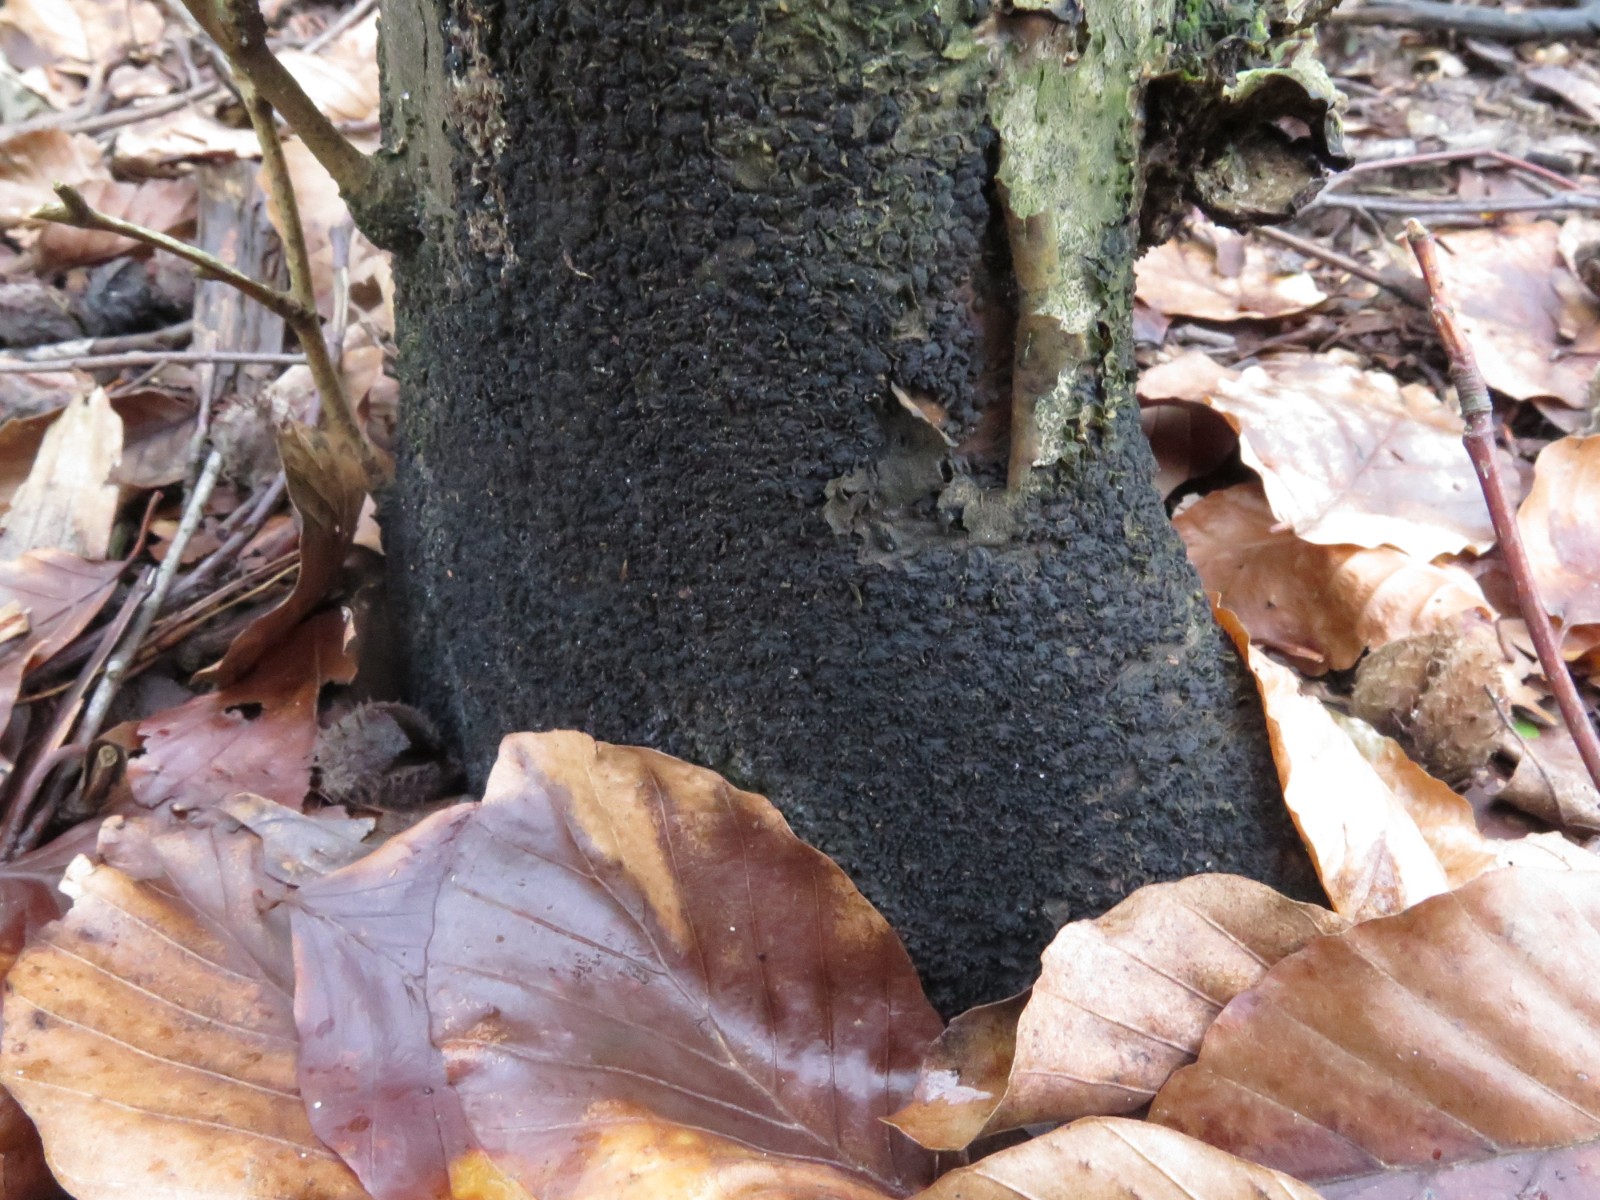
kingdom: Fungi
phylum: Ascomycota
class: Sordariomycetes
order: Xylariales
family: Melogrammataceae
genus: Melogramma
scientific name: Melogramma spiniferum
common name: bøgefod-kulhals
